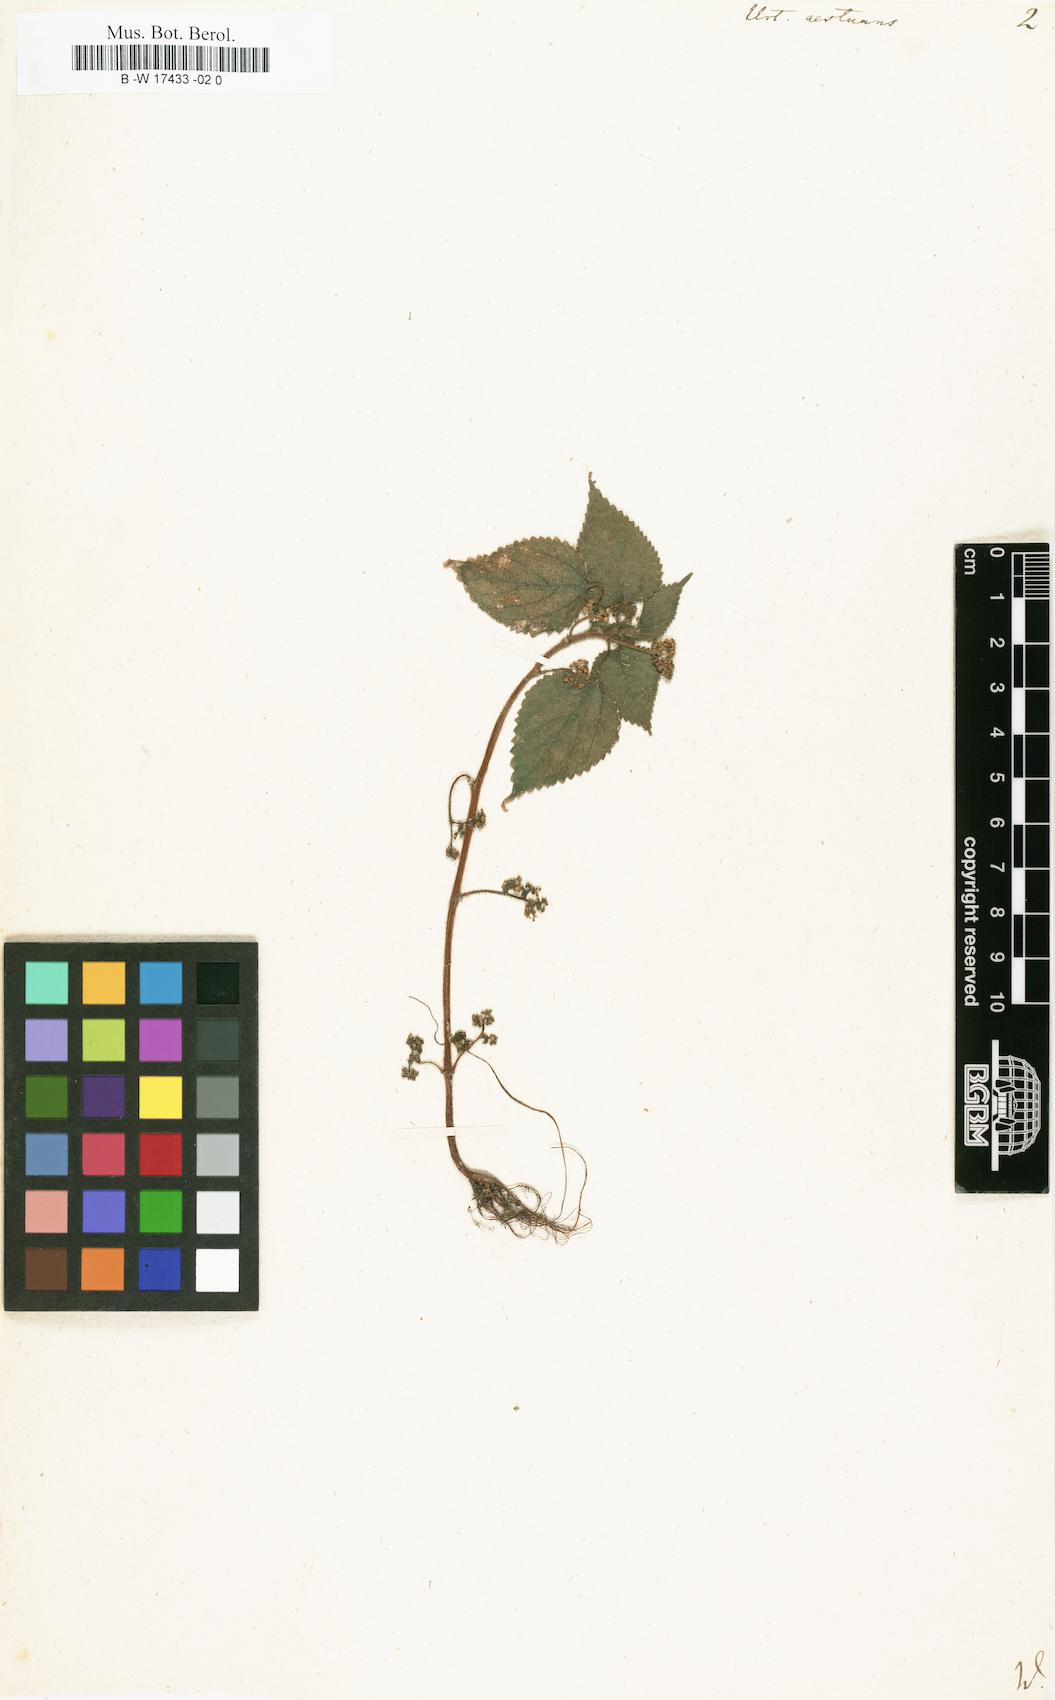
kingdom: Plantae
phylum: Tracheophyta
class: Magnoliopsida
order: Rosales
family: Urticaceae
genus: Laportea
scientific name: Laportea aestuans
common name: West indian woodnettle
